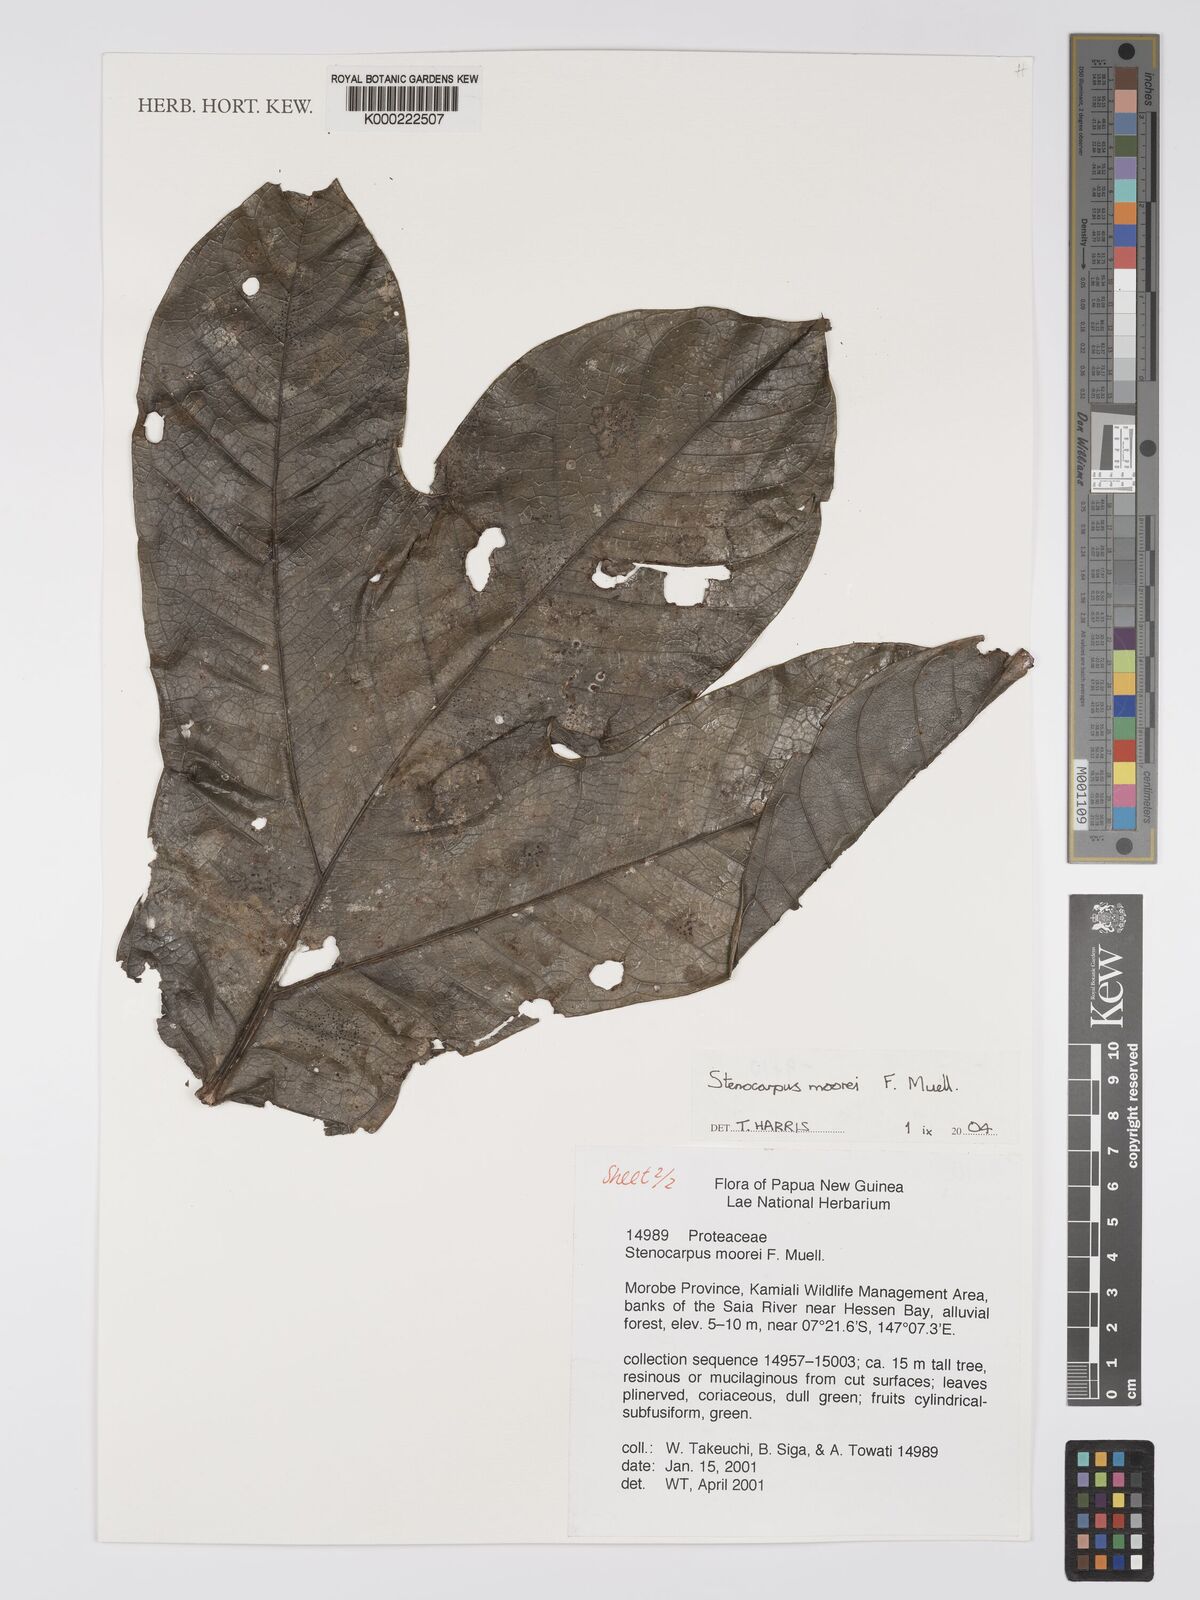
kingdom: Plantae
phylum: Tracheophyta
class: Magnoliopsida
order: Proteales
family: Proteaceae
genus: Helicia
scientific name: Helicia
